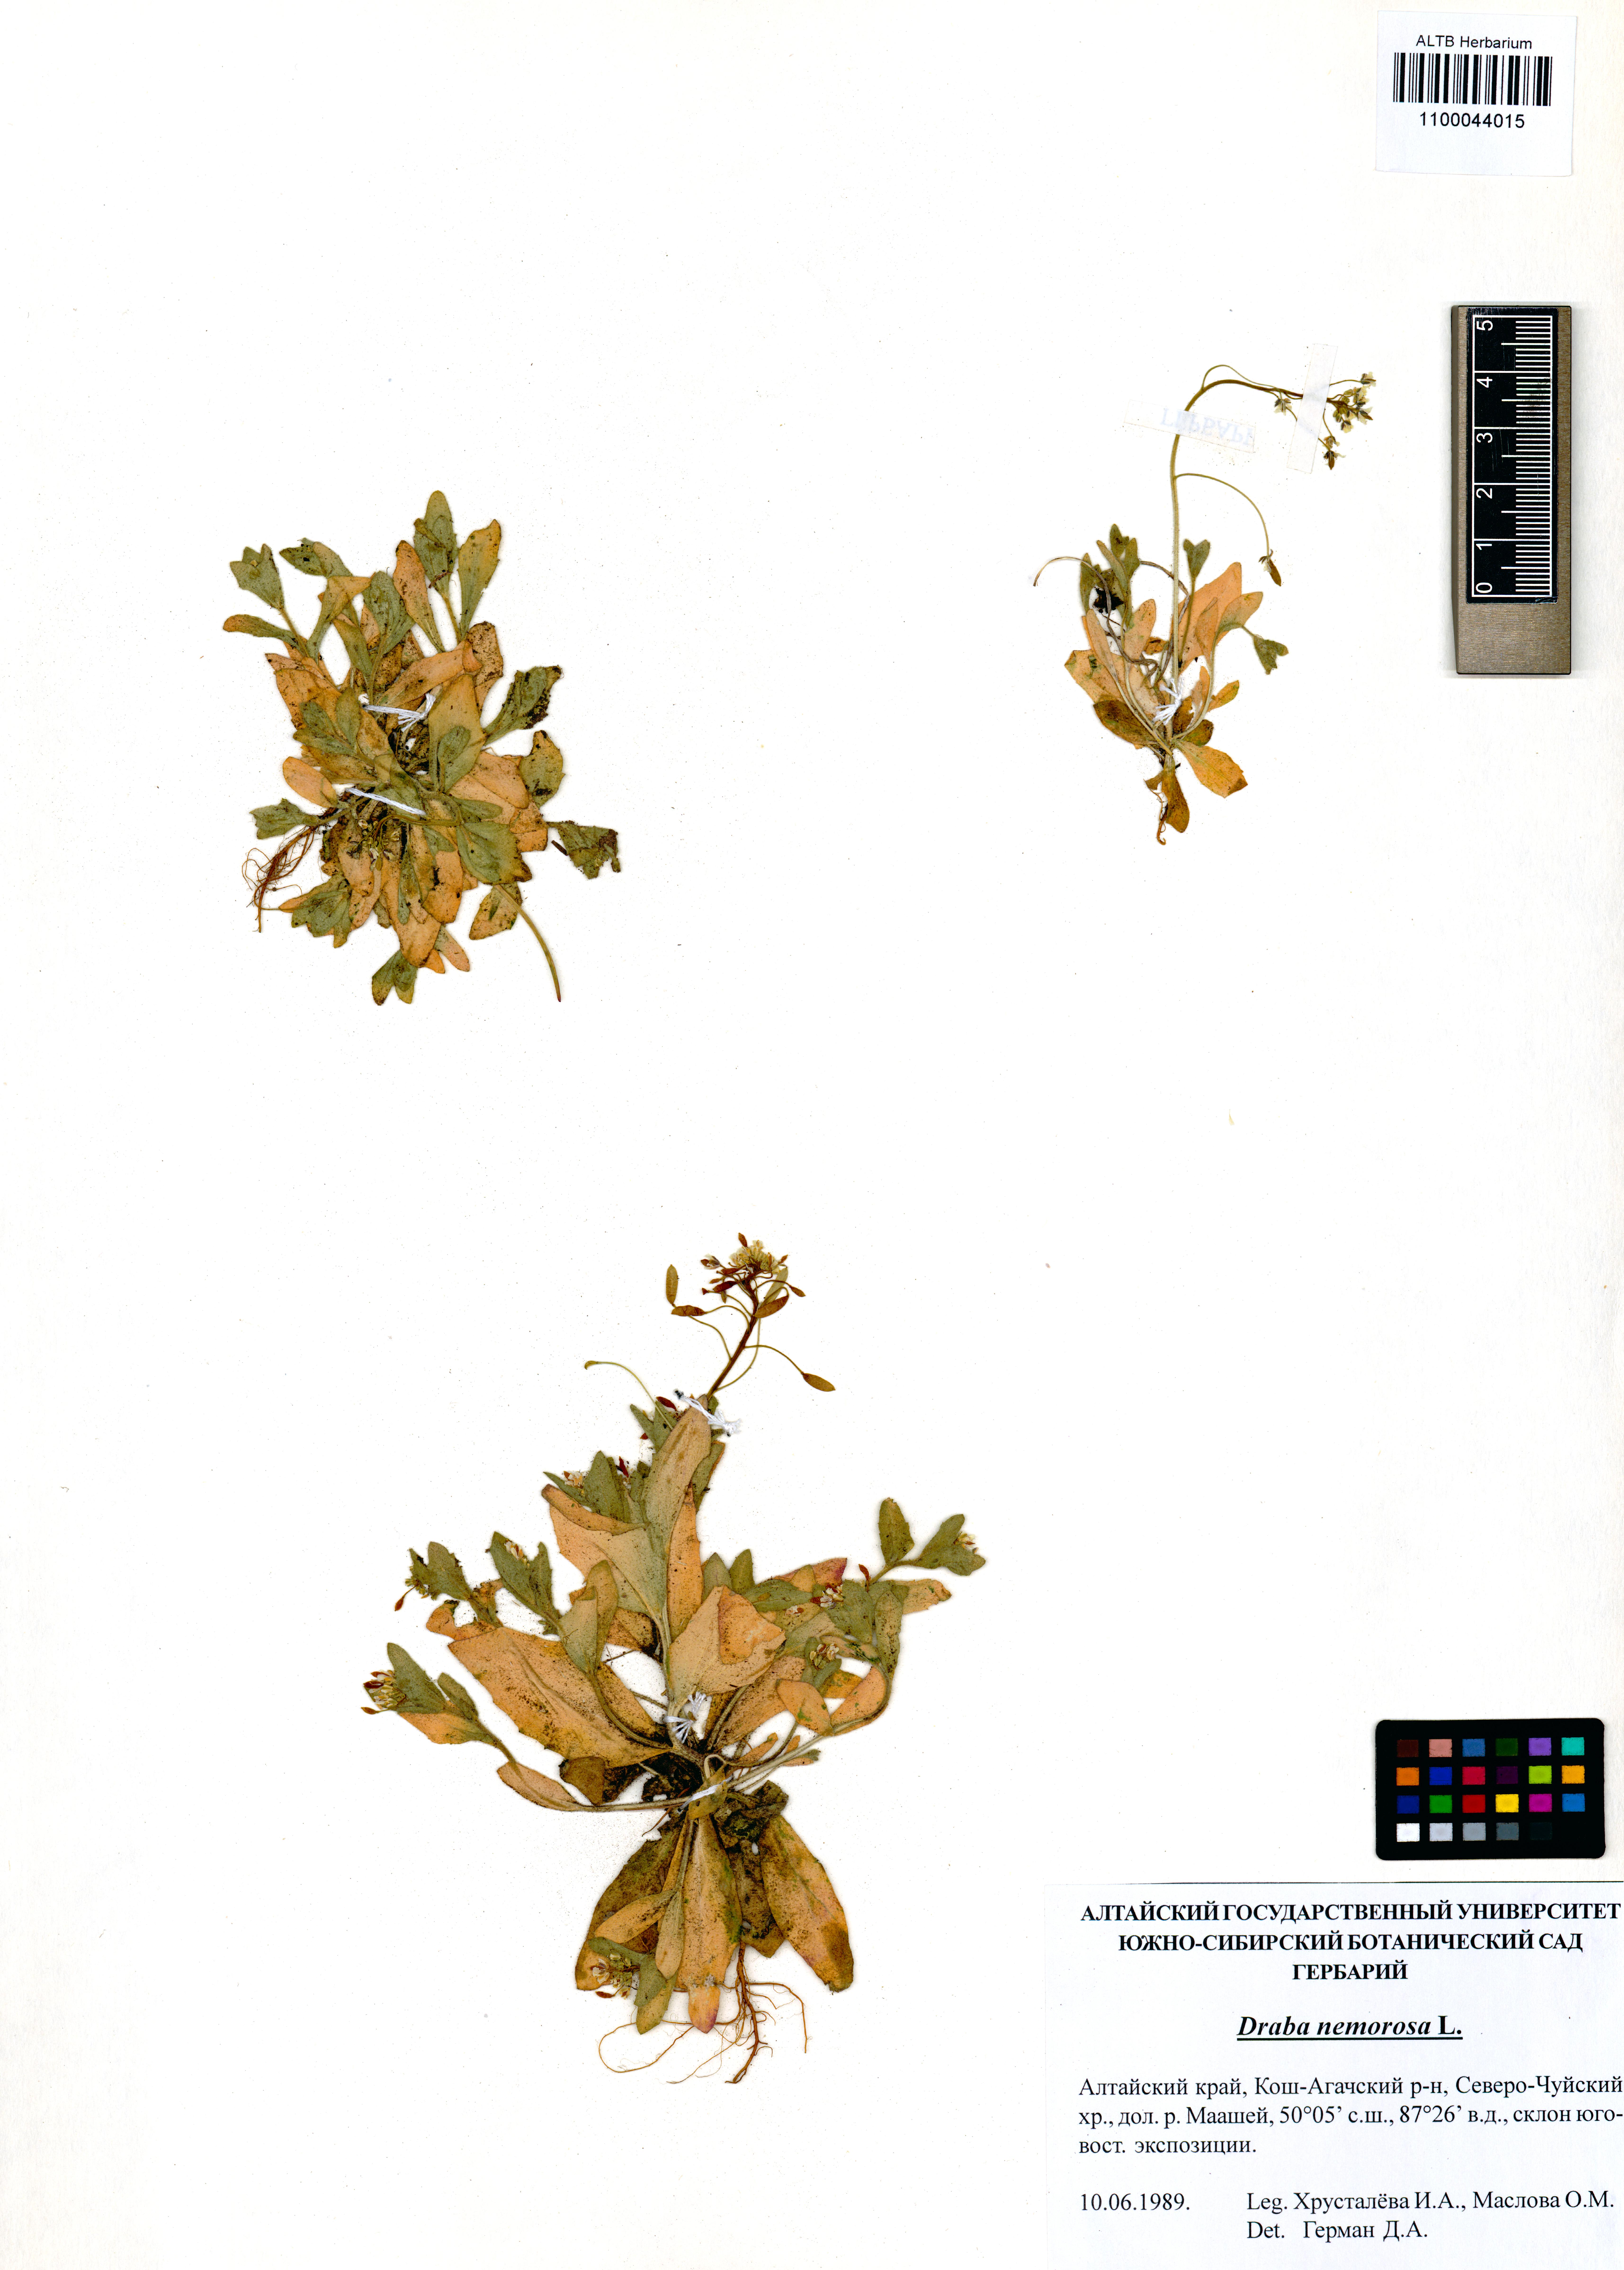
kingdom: Plantae
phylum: Tracheophyta
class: Magnoliopsida
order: Brassicales
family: Brassicaceae
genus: Draba
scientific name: Draba nemorosa
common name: Wood whitlow-grass
